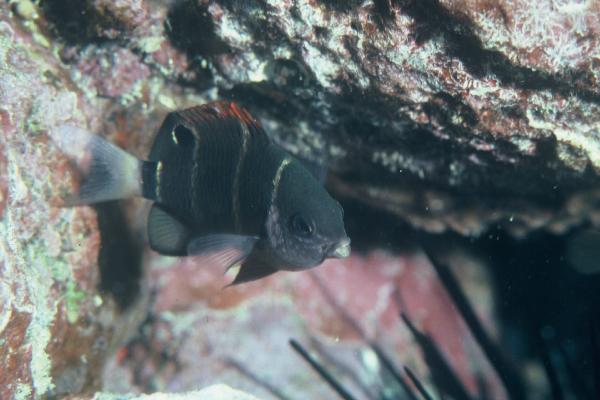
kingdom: Animalia
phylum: Chordata
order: Perciformes
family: Pomacentridae
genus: Plectroglyphidodon
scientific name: Plectroglyphidodon phoenixensis
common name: Phoenix damsel
